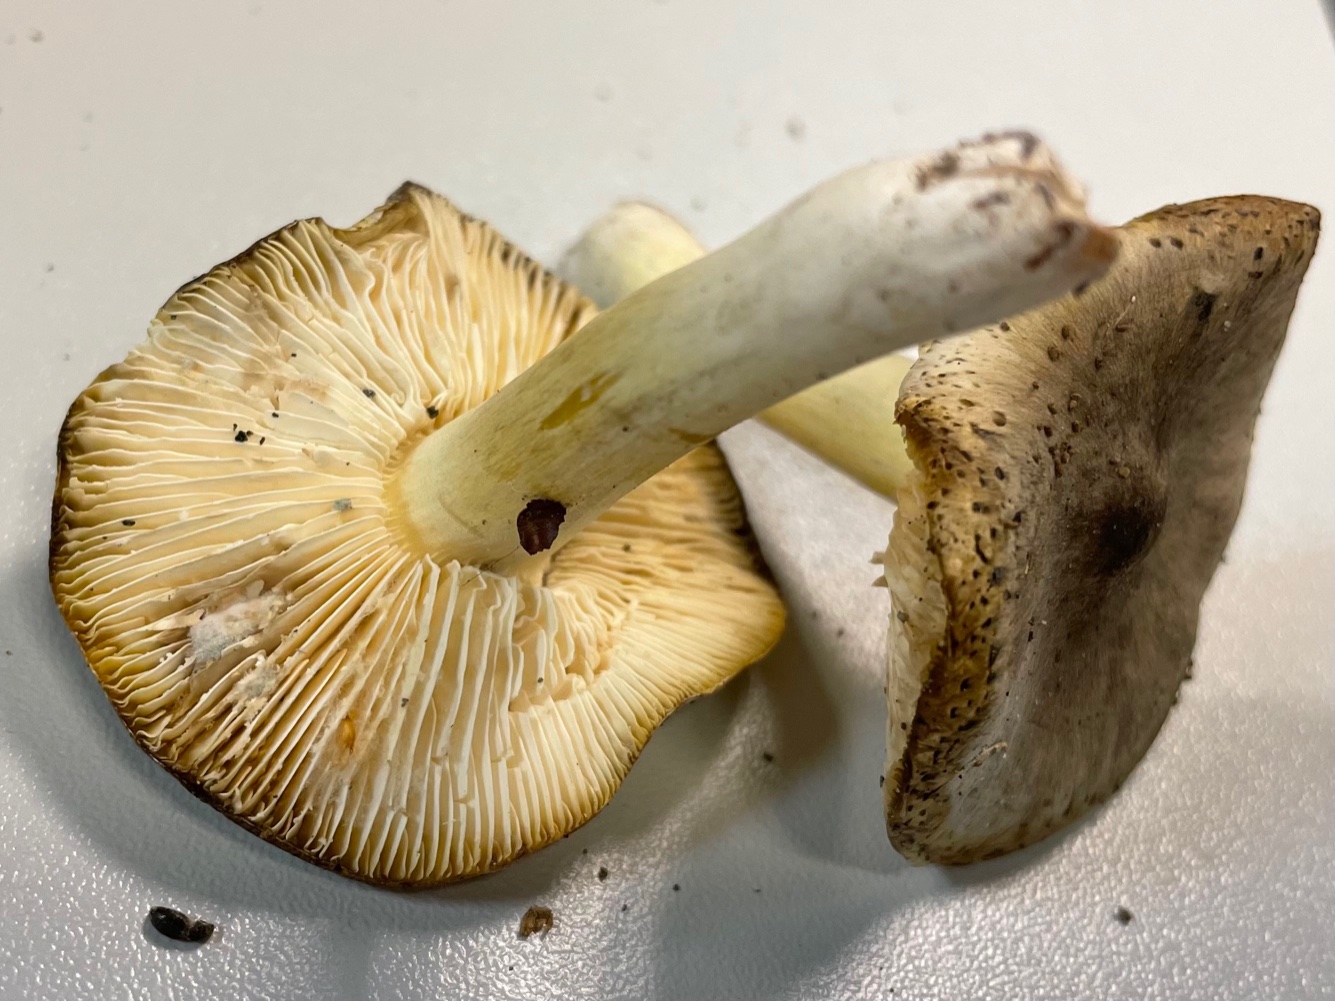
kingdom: Fungi
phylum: Basidiomycota
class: Agaricomycetes
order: Agaricales
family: Tricholomataceae
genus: Tricholoma
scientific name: Tricholoma rufenum
